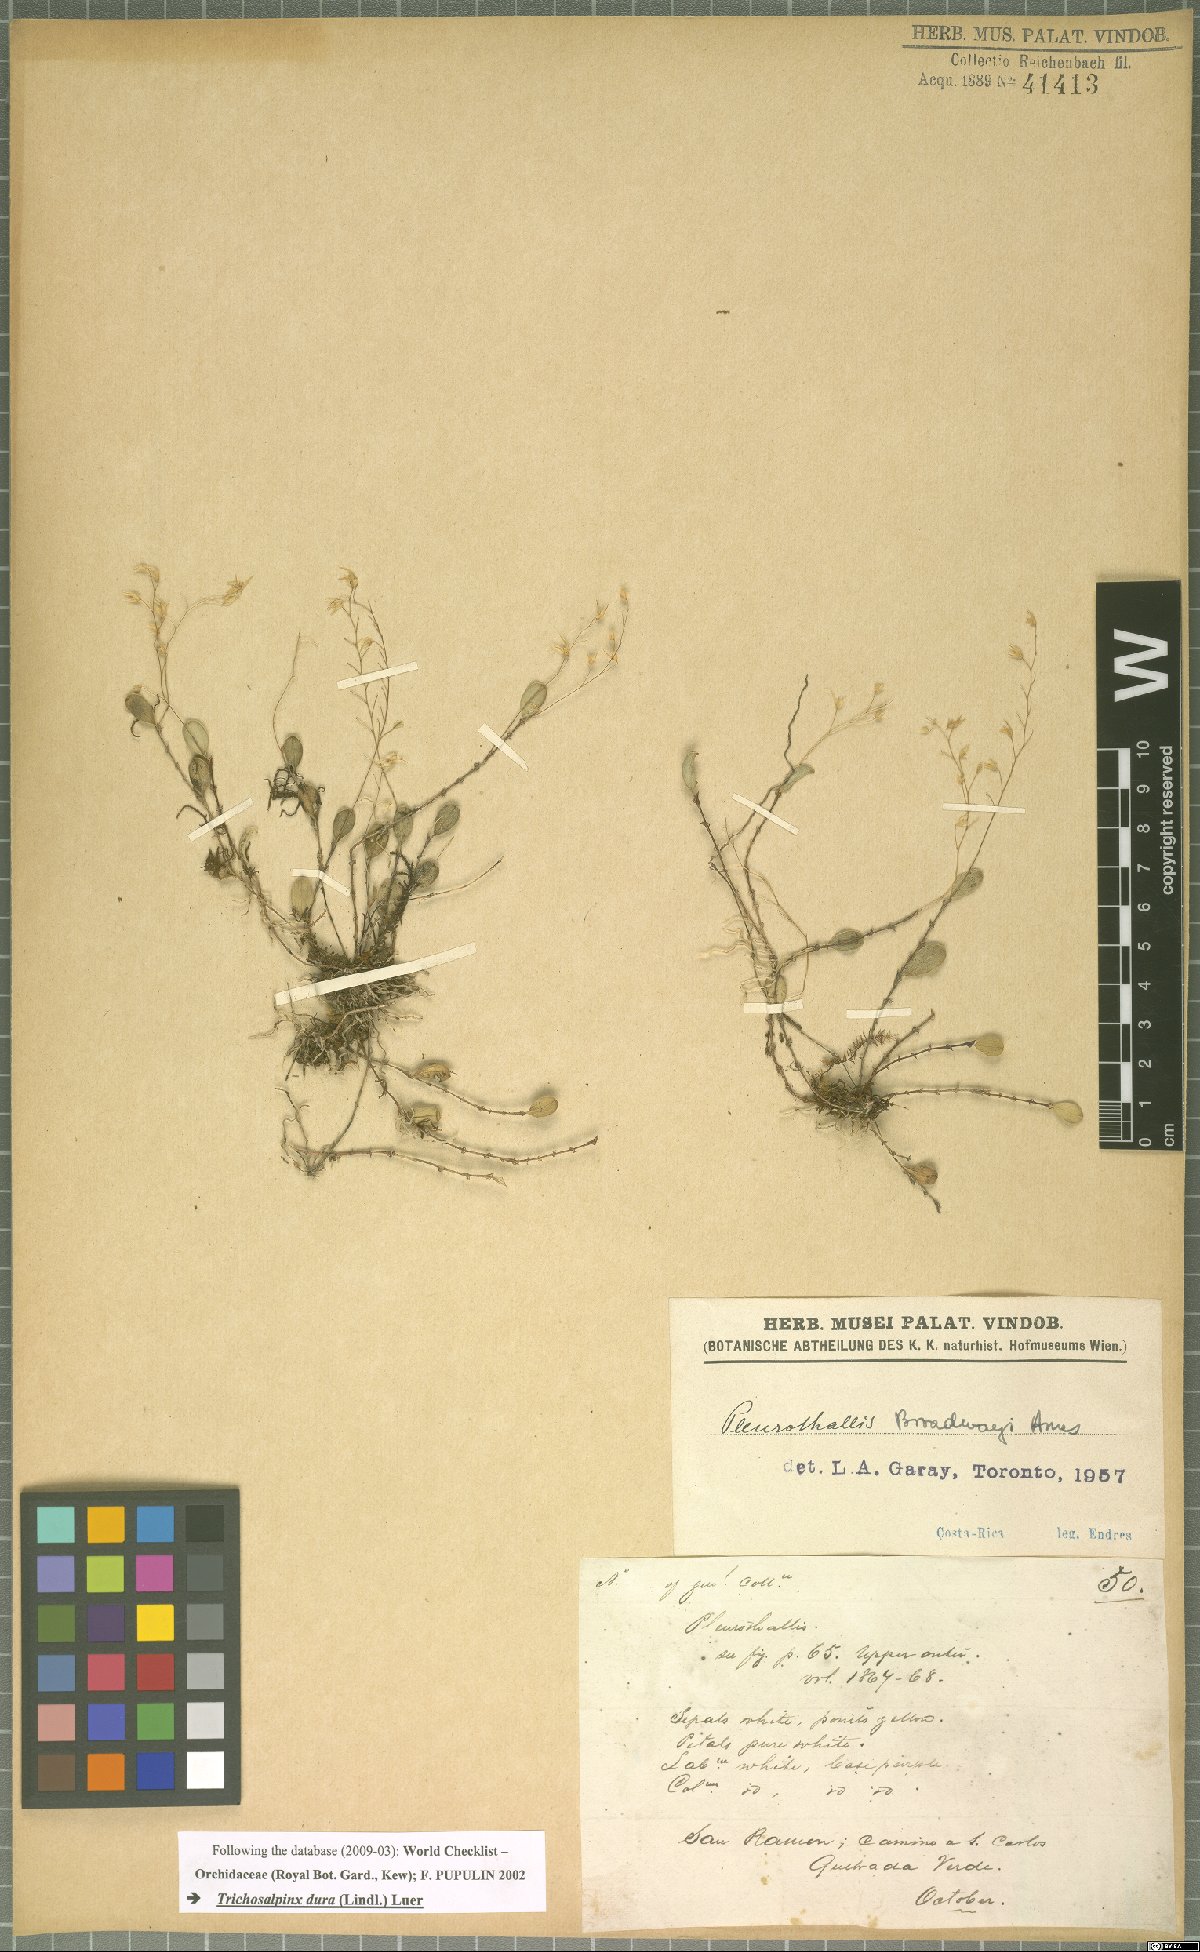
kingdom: Plantae
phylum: Tracheophyta
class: Liliopsida
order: Asparagales
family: Orchidaceae
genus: Trichosalpinx
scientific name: Trichosalpinx dura
